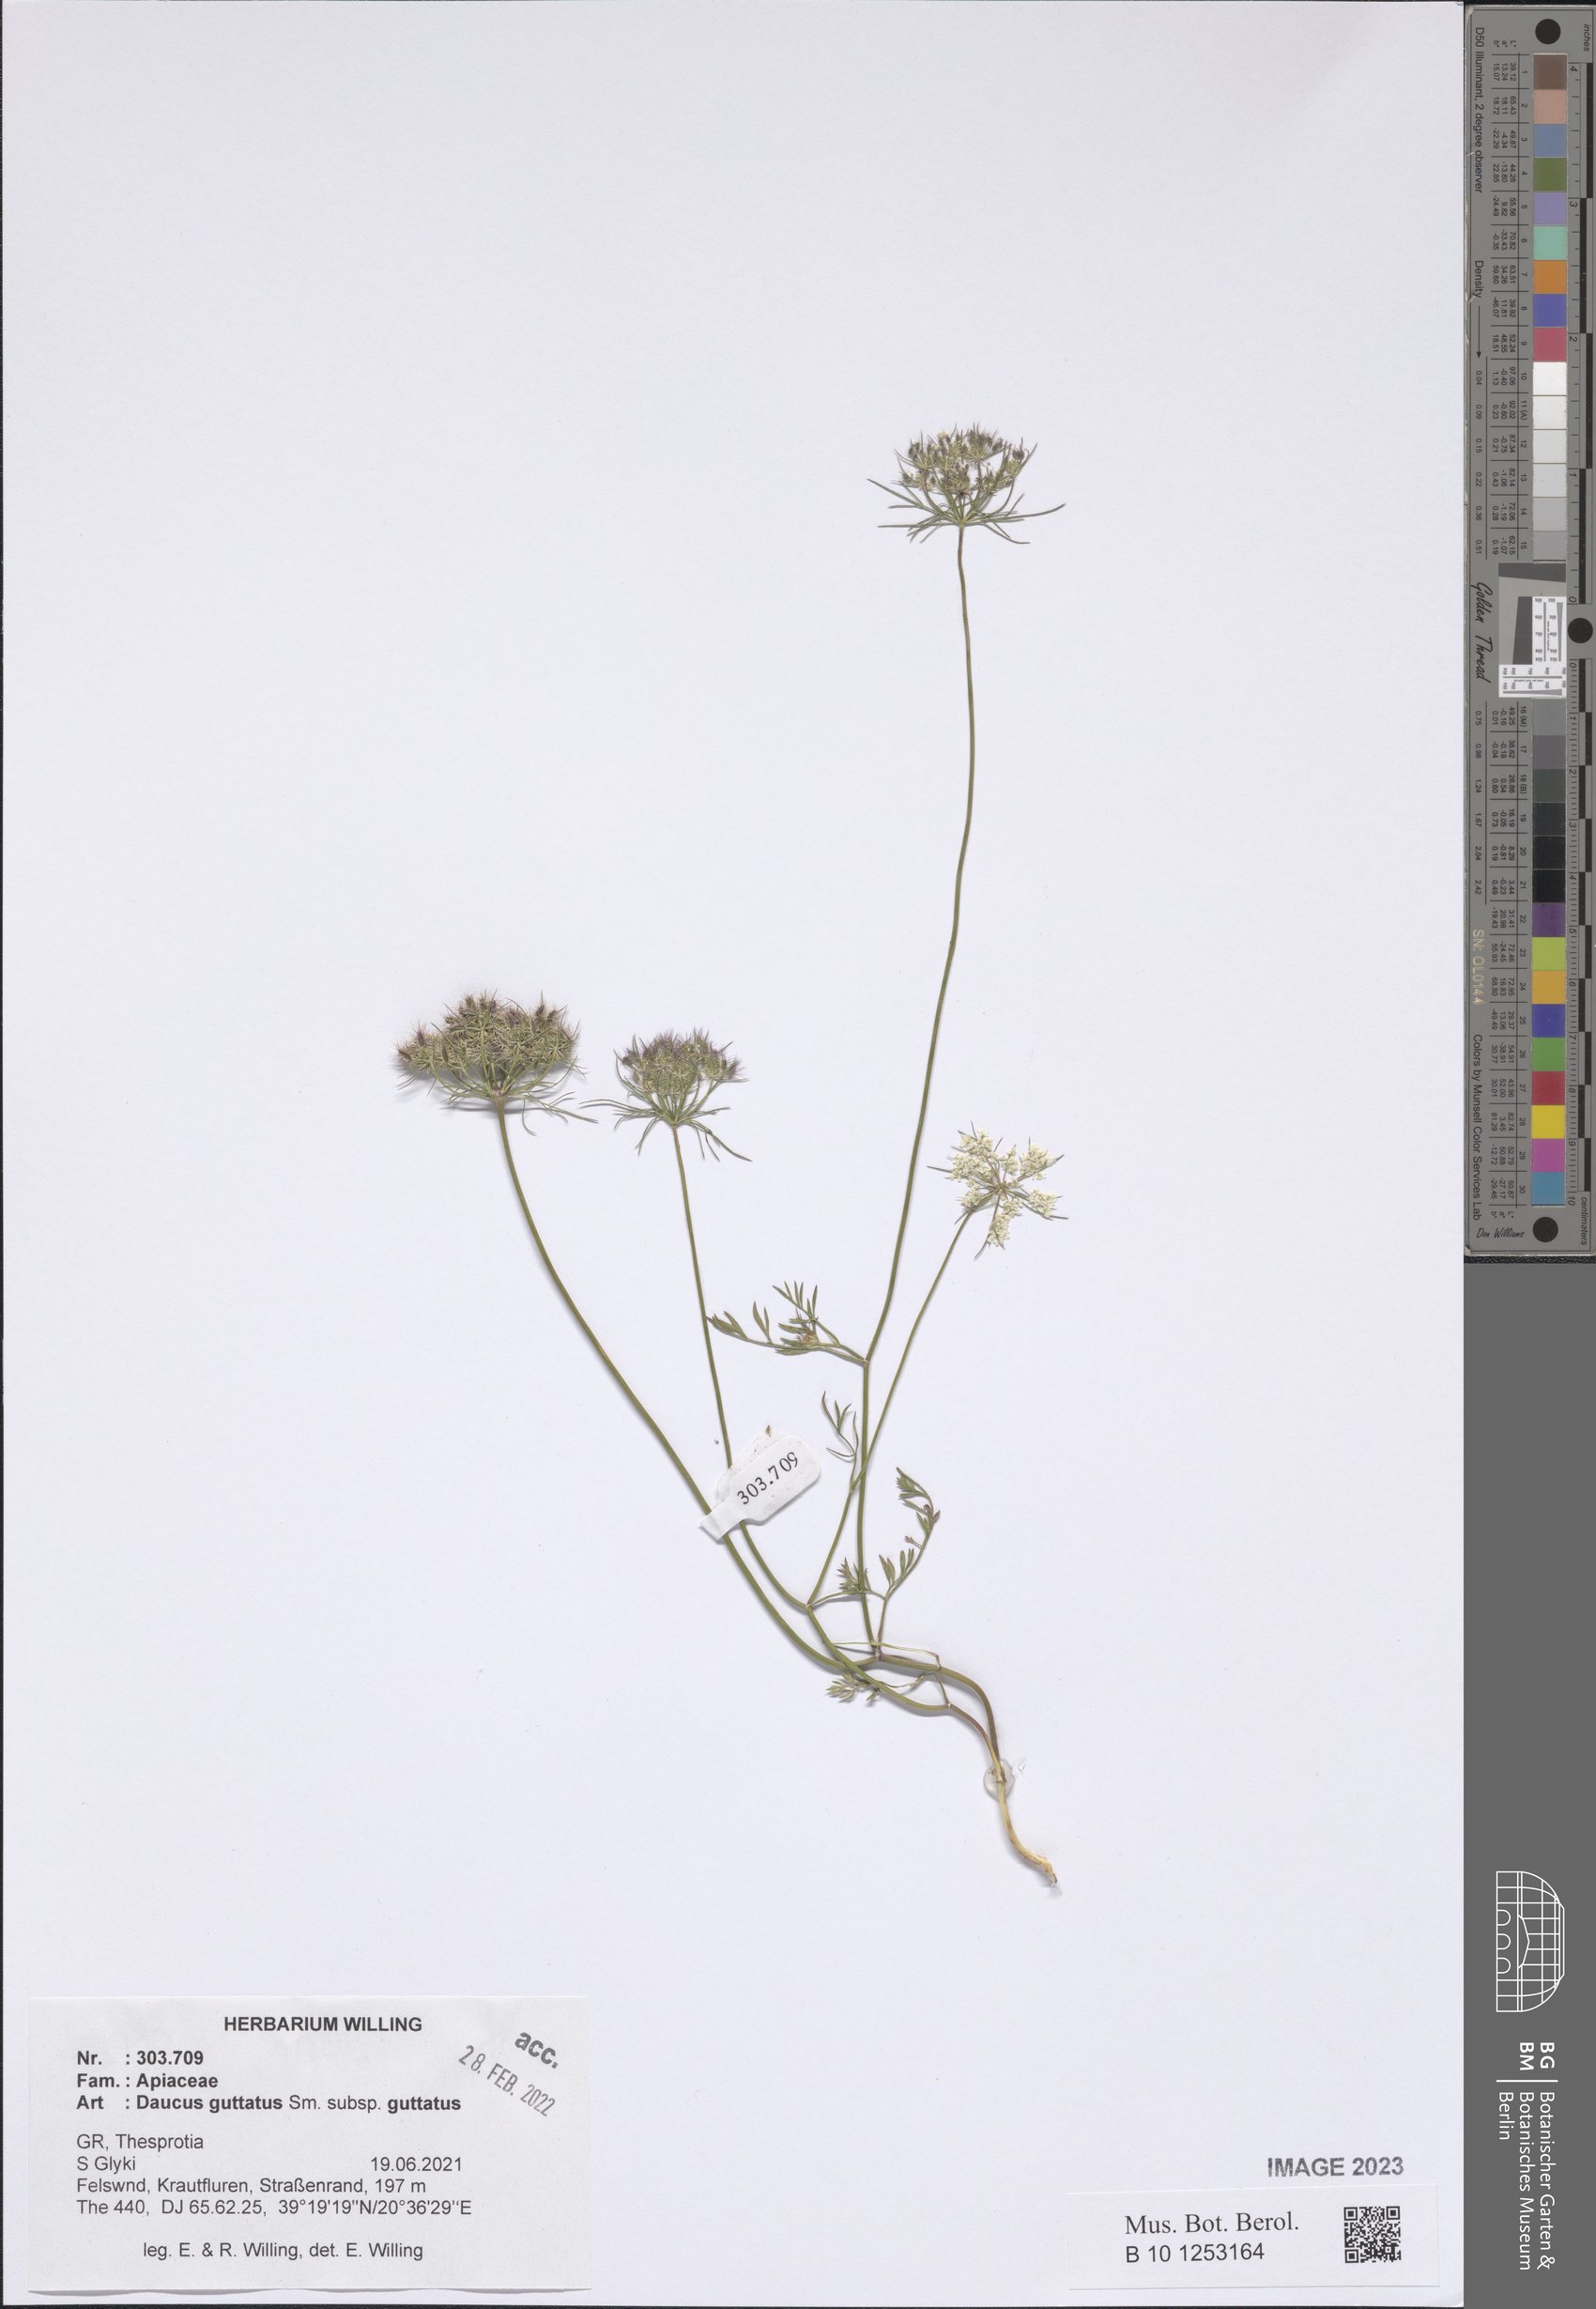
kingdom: Plantae
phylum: Tracheophyta
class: Magnoliopsida
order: Apiales
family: Apiaceae
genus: Daucus
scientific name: Daucus guttatus
